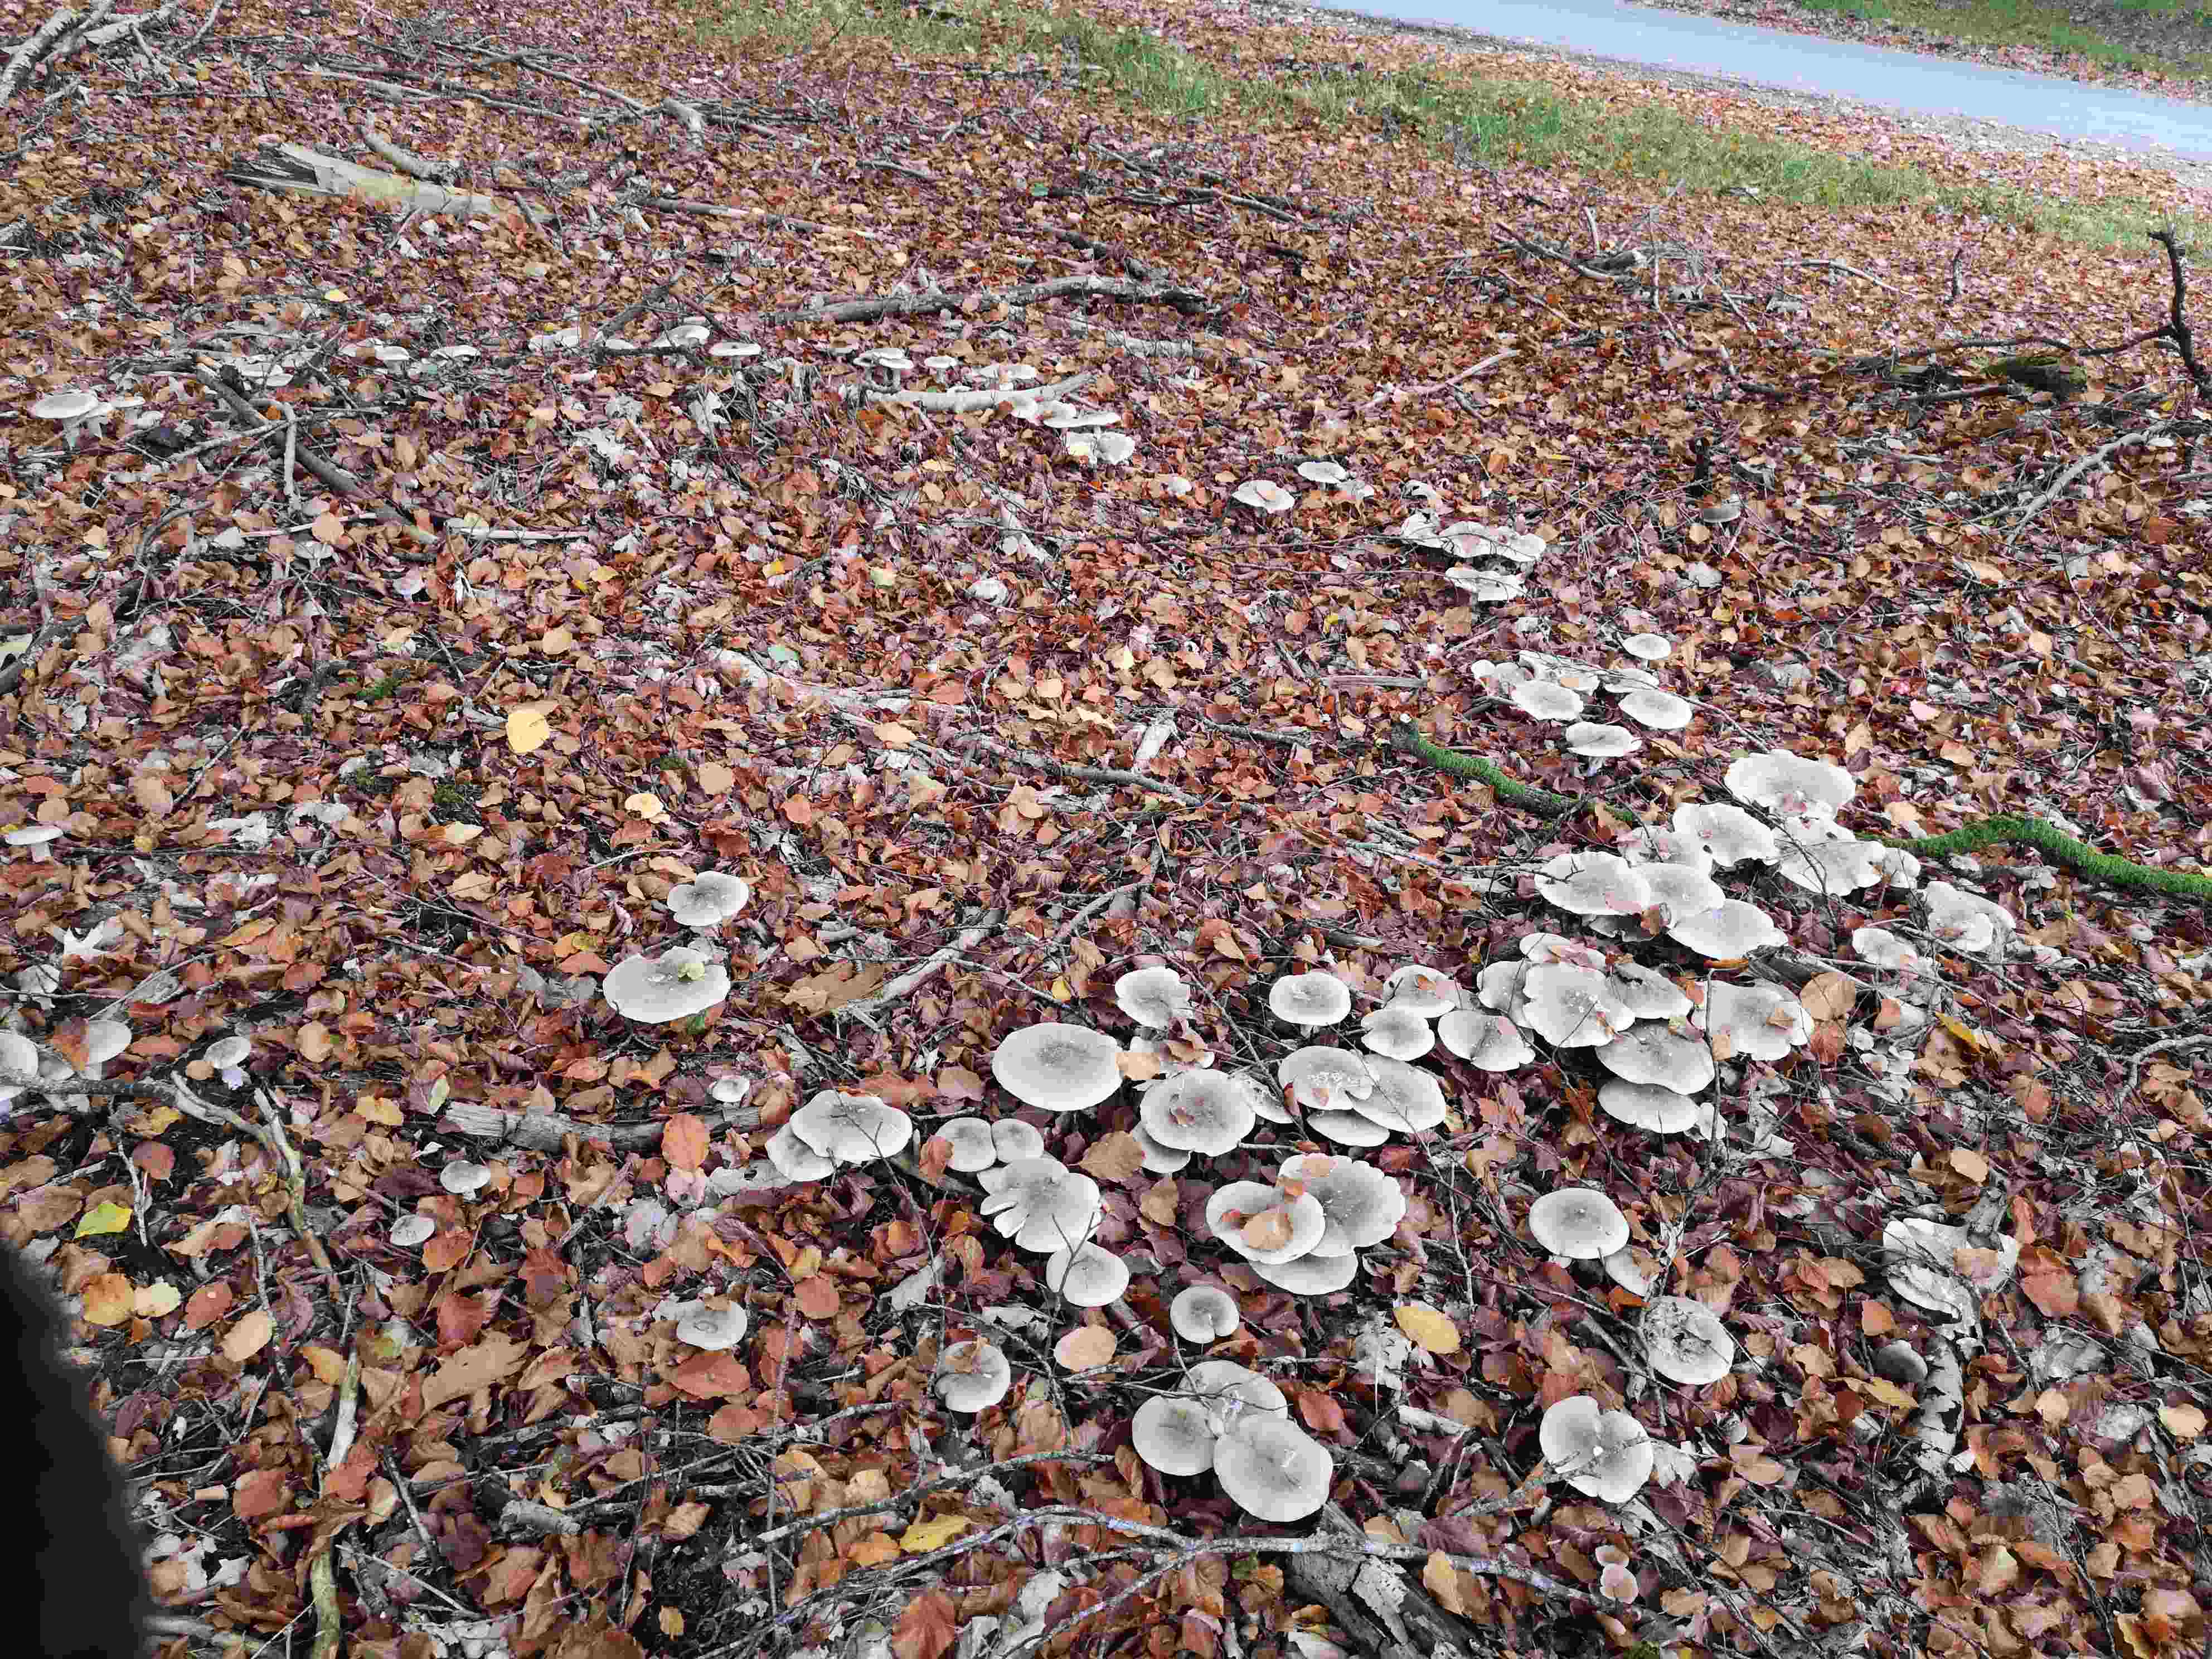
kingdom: Fungi
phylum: Basidiomycota
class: Agaricomycetes
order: Agaricales
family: Tricholomataceae
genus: Clitocybe
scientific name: Clitocybe nebularis
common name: tåge-tragthat
